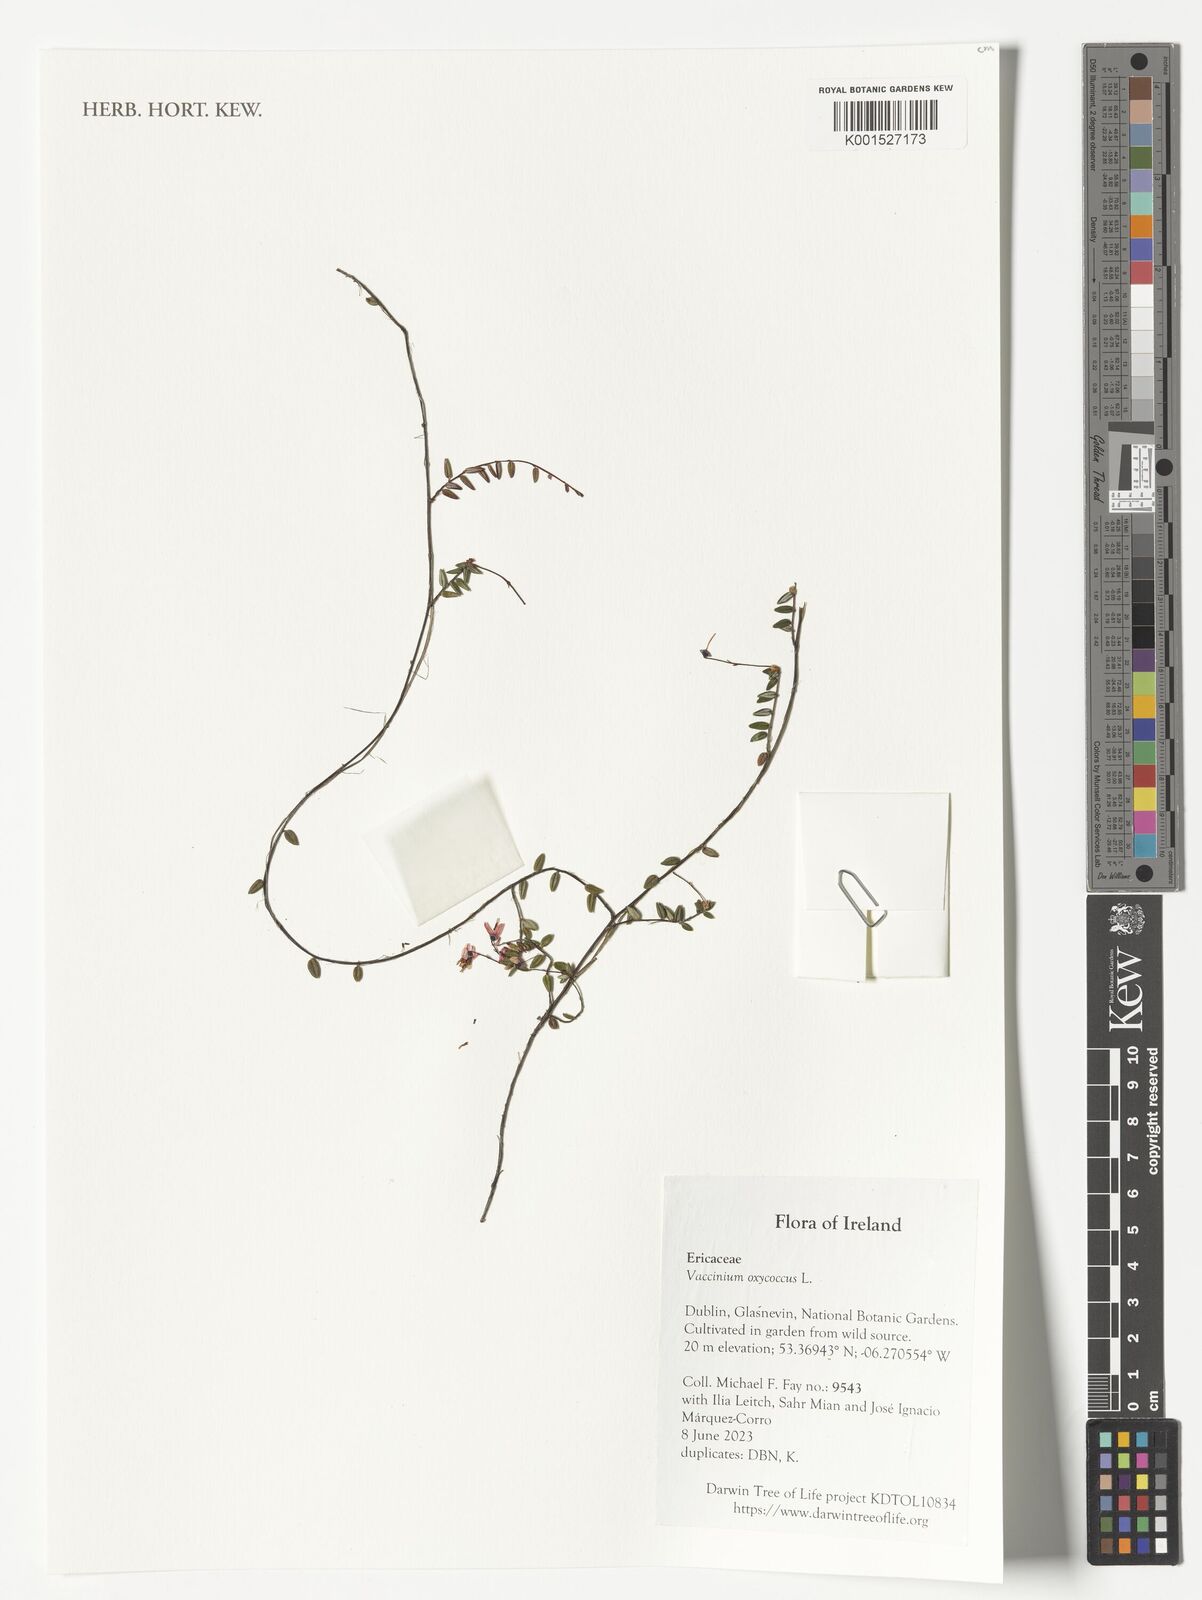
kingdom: Plantae
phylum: Tracheophyta
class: Magnoliopsida
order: Ericales
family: Ericaceae
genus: Vaccinium
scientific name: Vaccinium oxycoccos
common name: Cranberry
